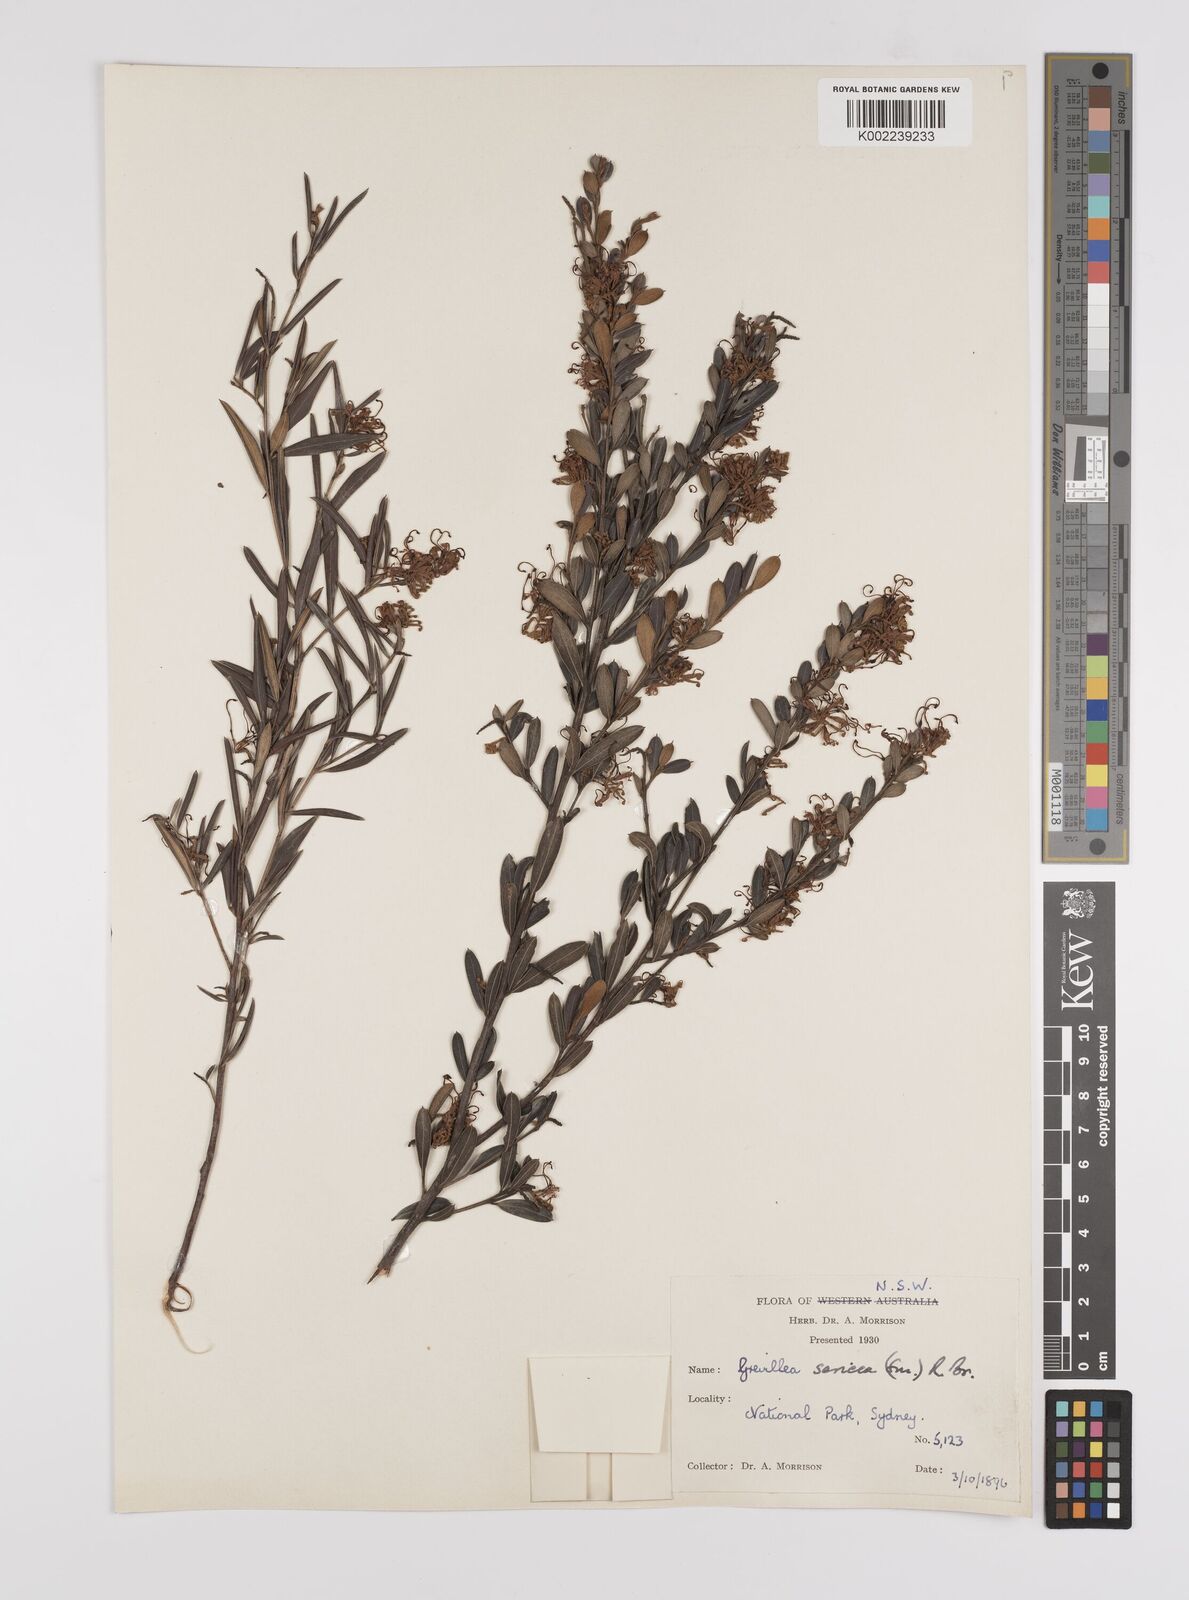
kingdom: Plantae
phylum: Tracheophyta
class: Magnoliopsida
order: Proteales
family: Proteaceae
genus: Grevillea
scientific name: Grevillea sericea
